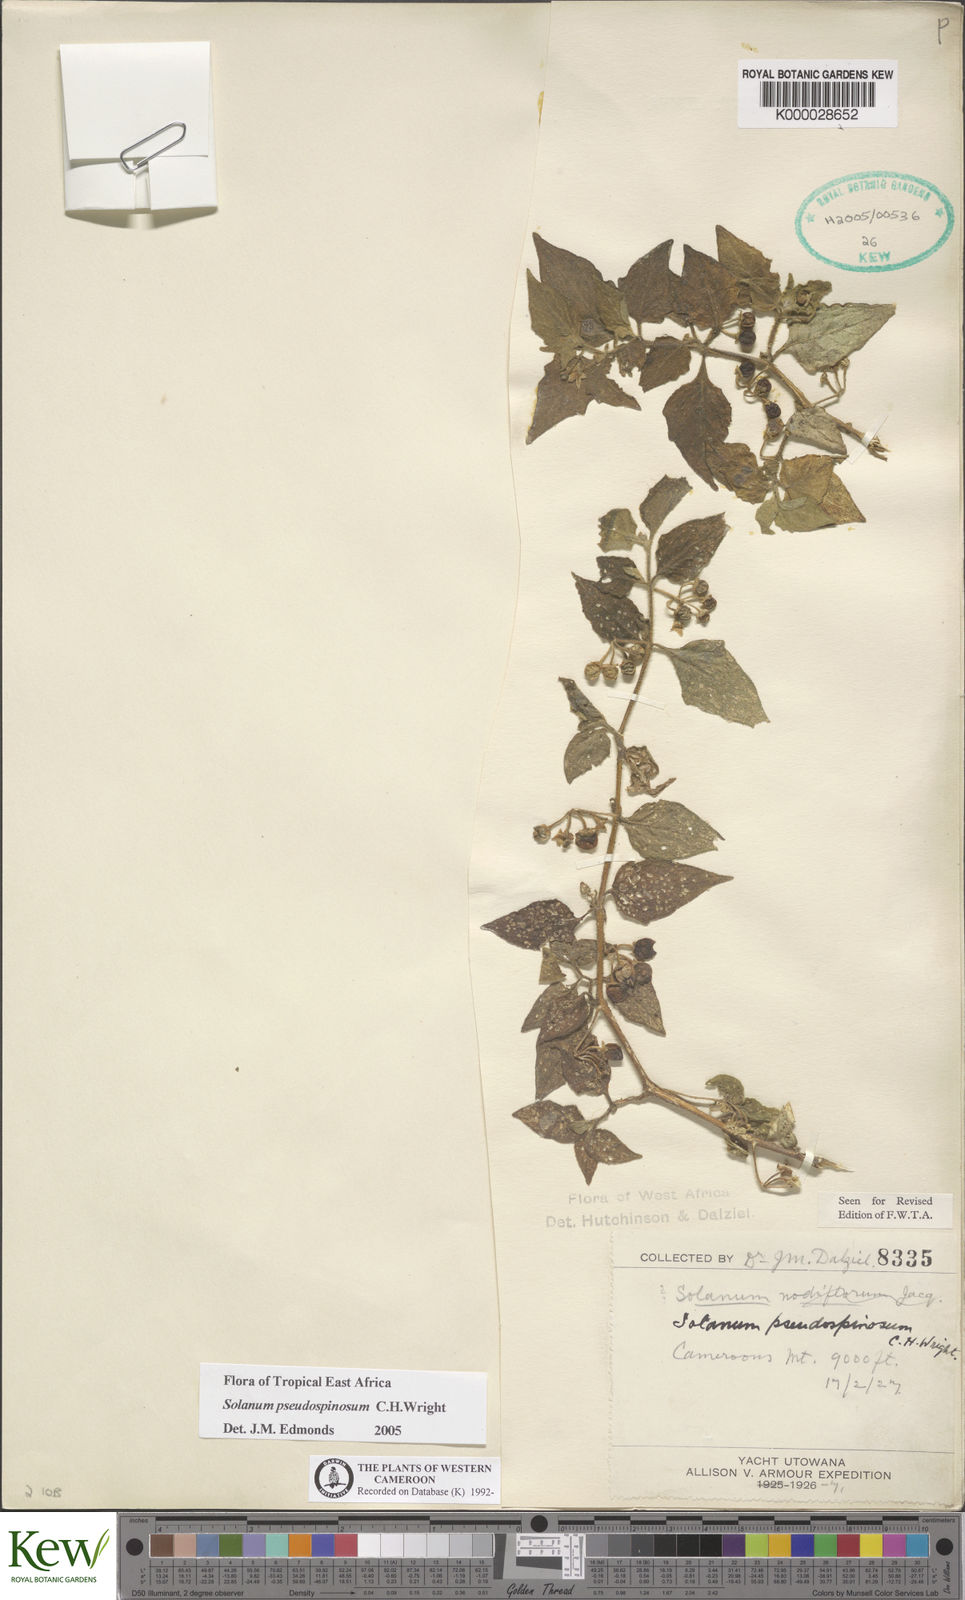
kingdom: Plantae
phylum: Tracheophyta
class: Magnoliopsida
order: Solanales
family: Solanaceae
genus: Solanum
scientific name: Solanum pseudospinosum
